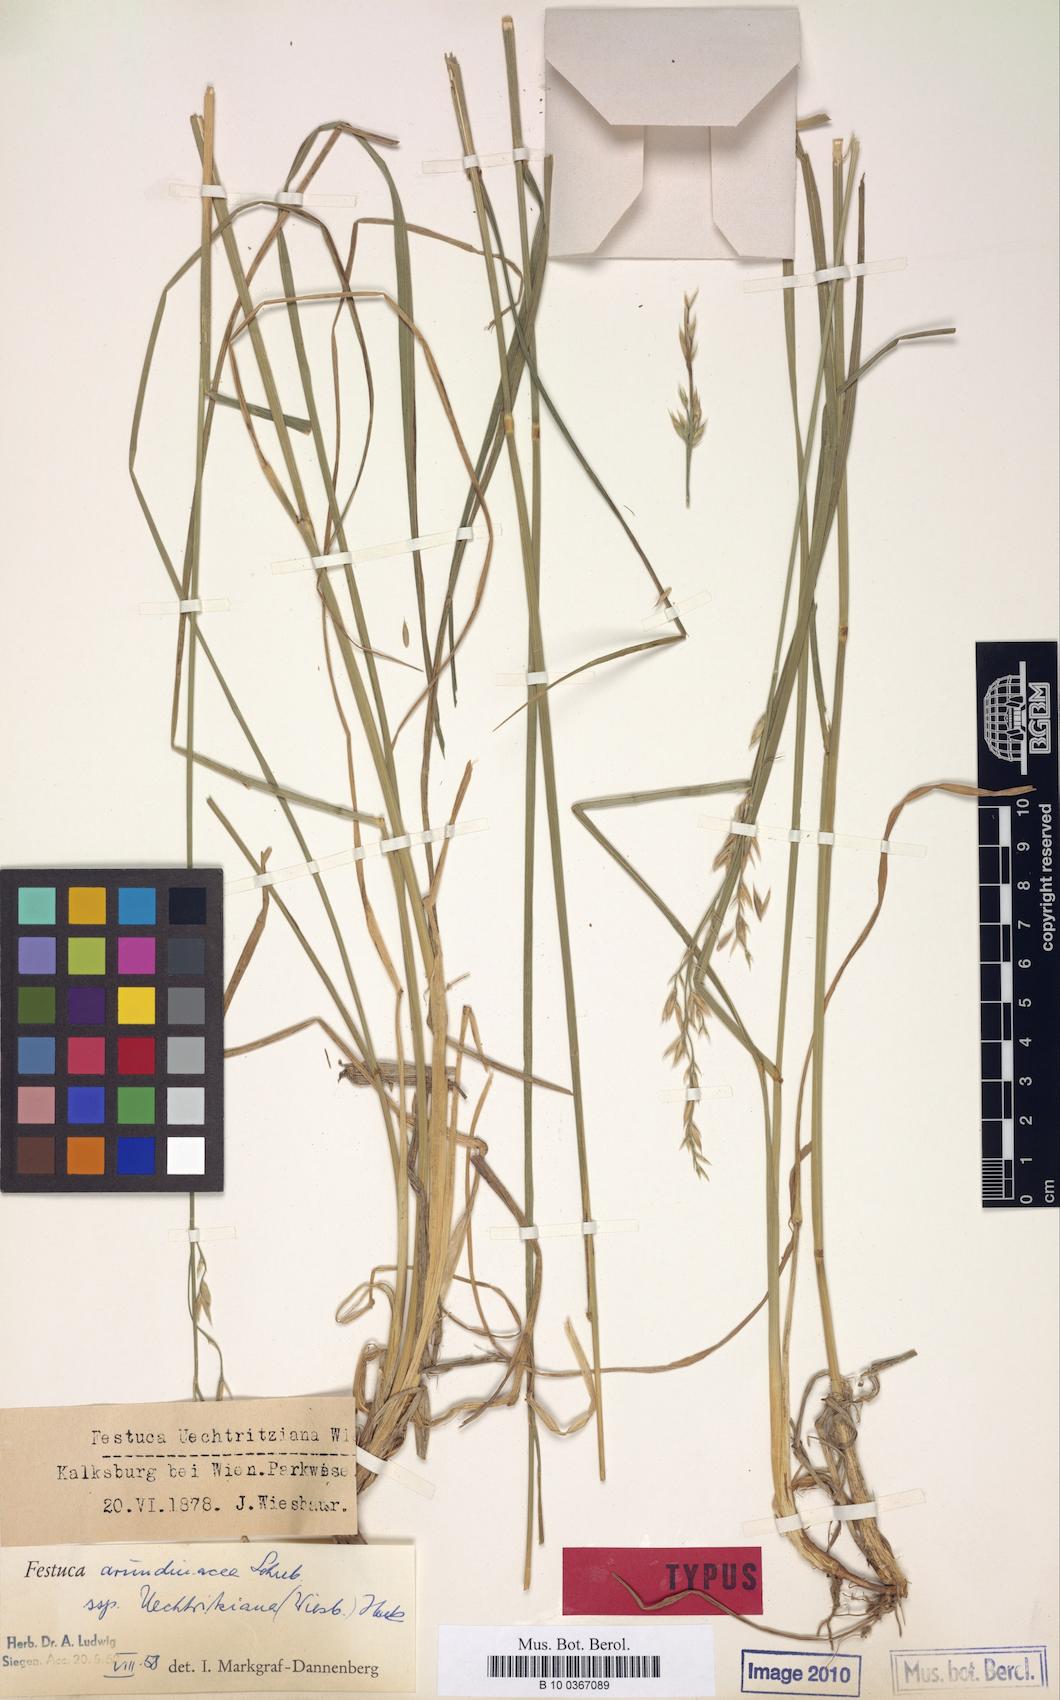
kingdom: Plantae
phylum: Tracheophyta
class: Liliopsida
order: Poales
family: Poaceae
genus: Lolium
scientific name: Lolium arundinaceum
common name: Reed fescue
